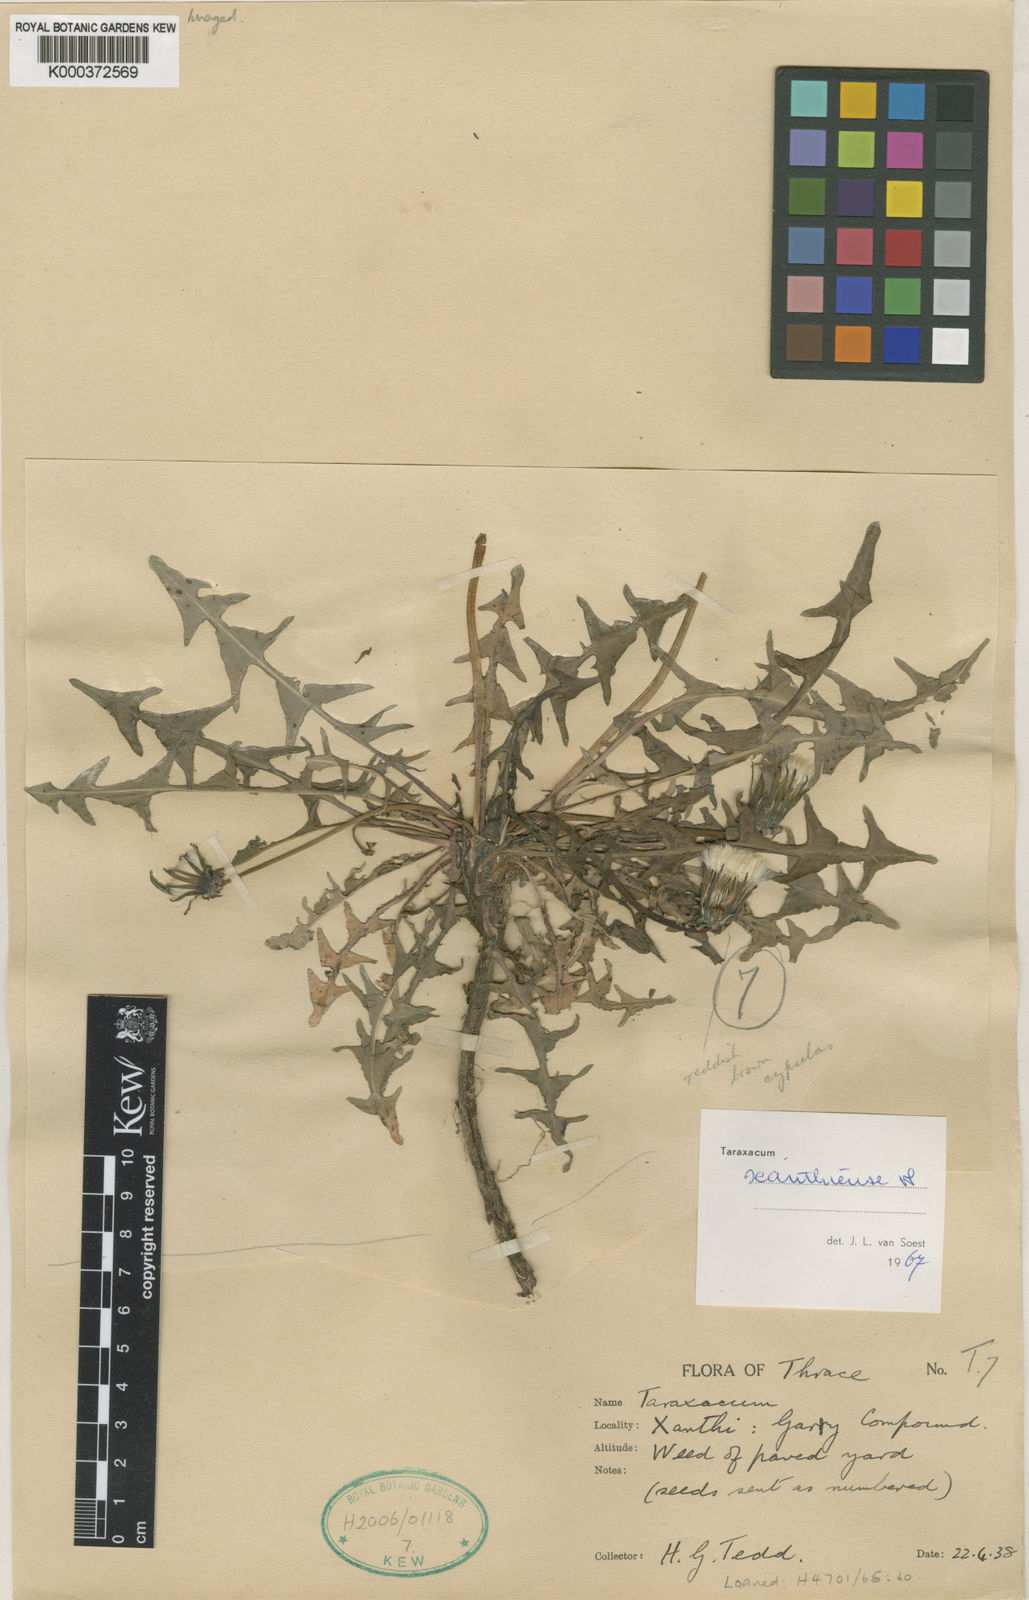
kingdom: Plantae
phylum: Tracheophyta
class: Magnoliopsida
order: Asterales
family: Asteraceae
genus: Taraxacum
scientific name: Taraxacum xanthiense
